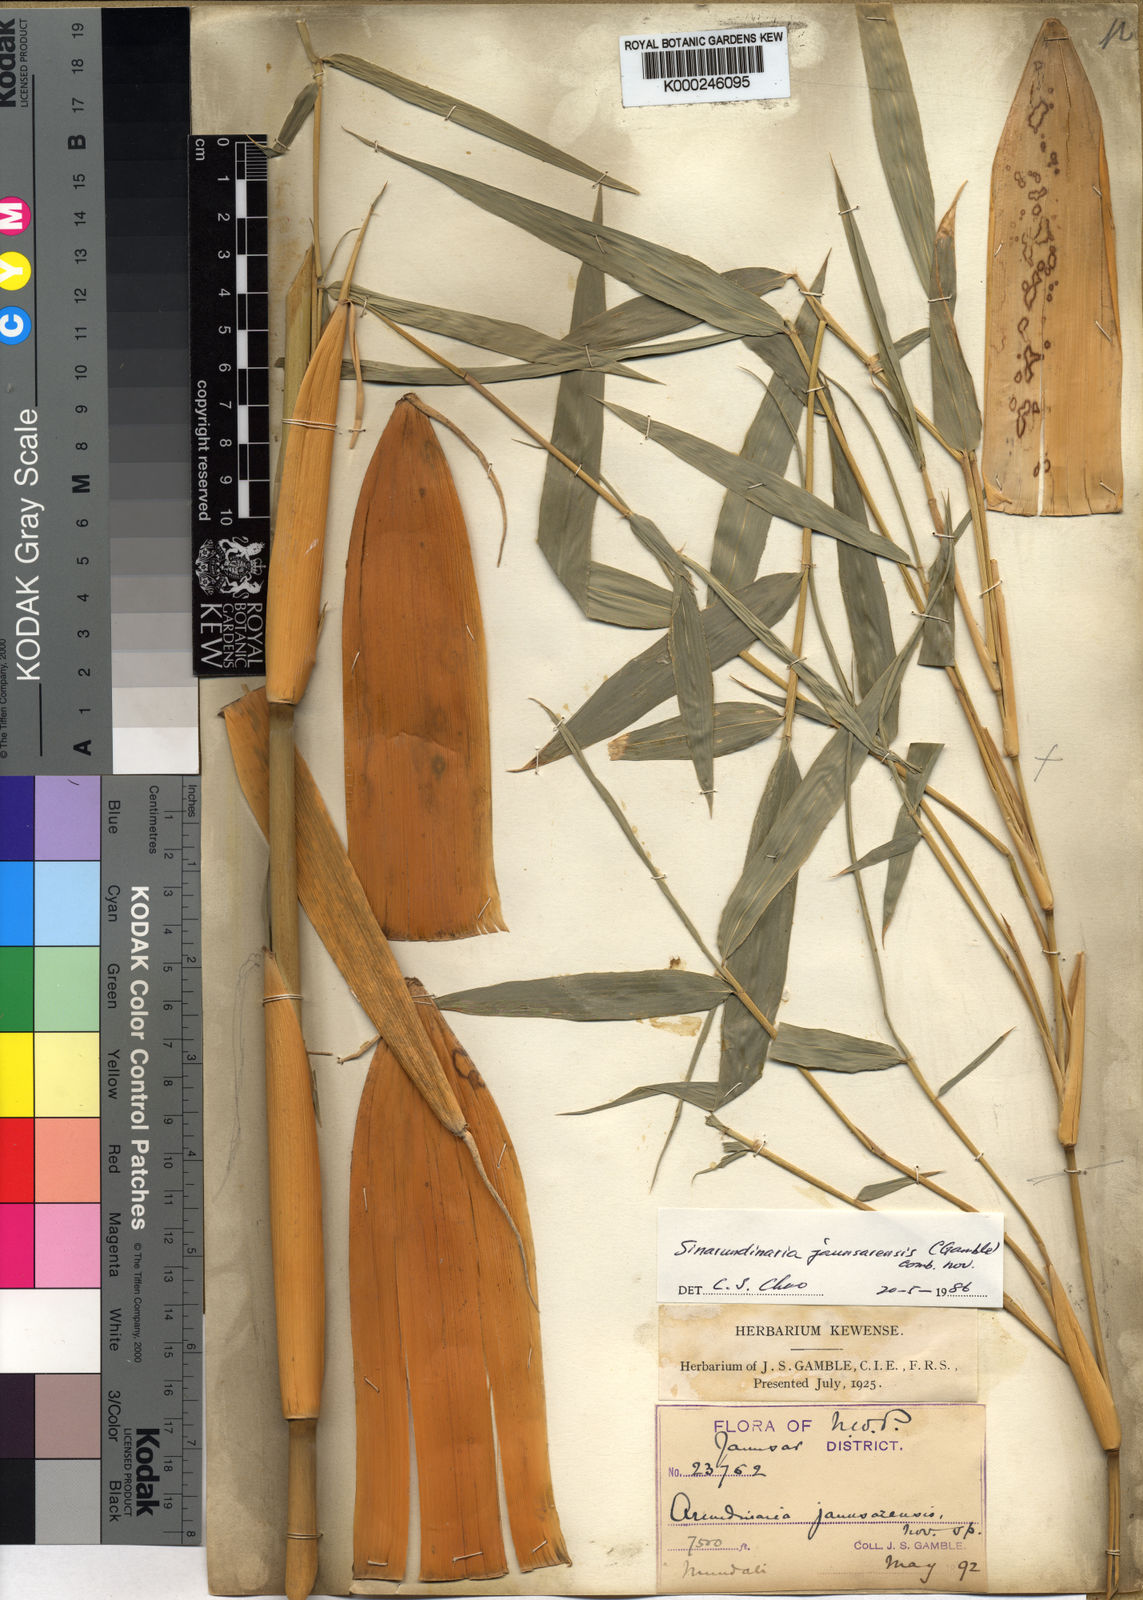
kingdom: Plantae
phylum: Tracheophyta
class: Liliopsida
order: Poales
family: Poaceae
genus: Yushania
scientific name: Yushania anceps
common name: Indian fountain-bamboo
